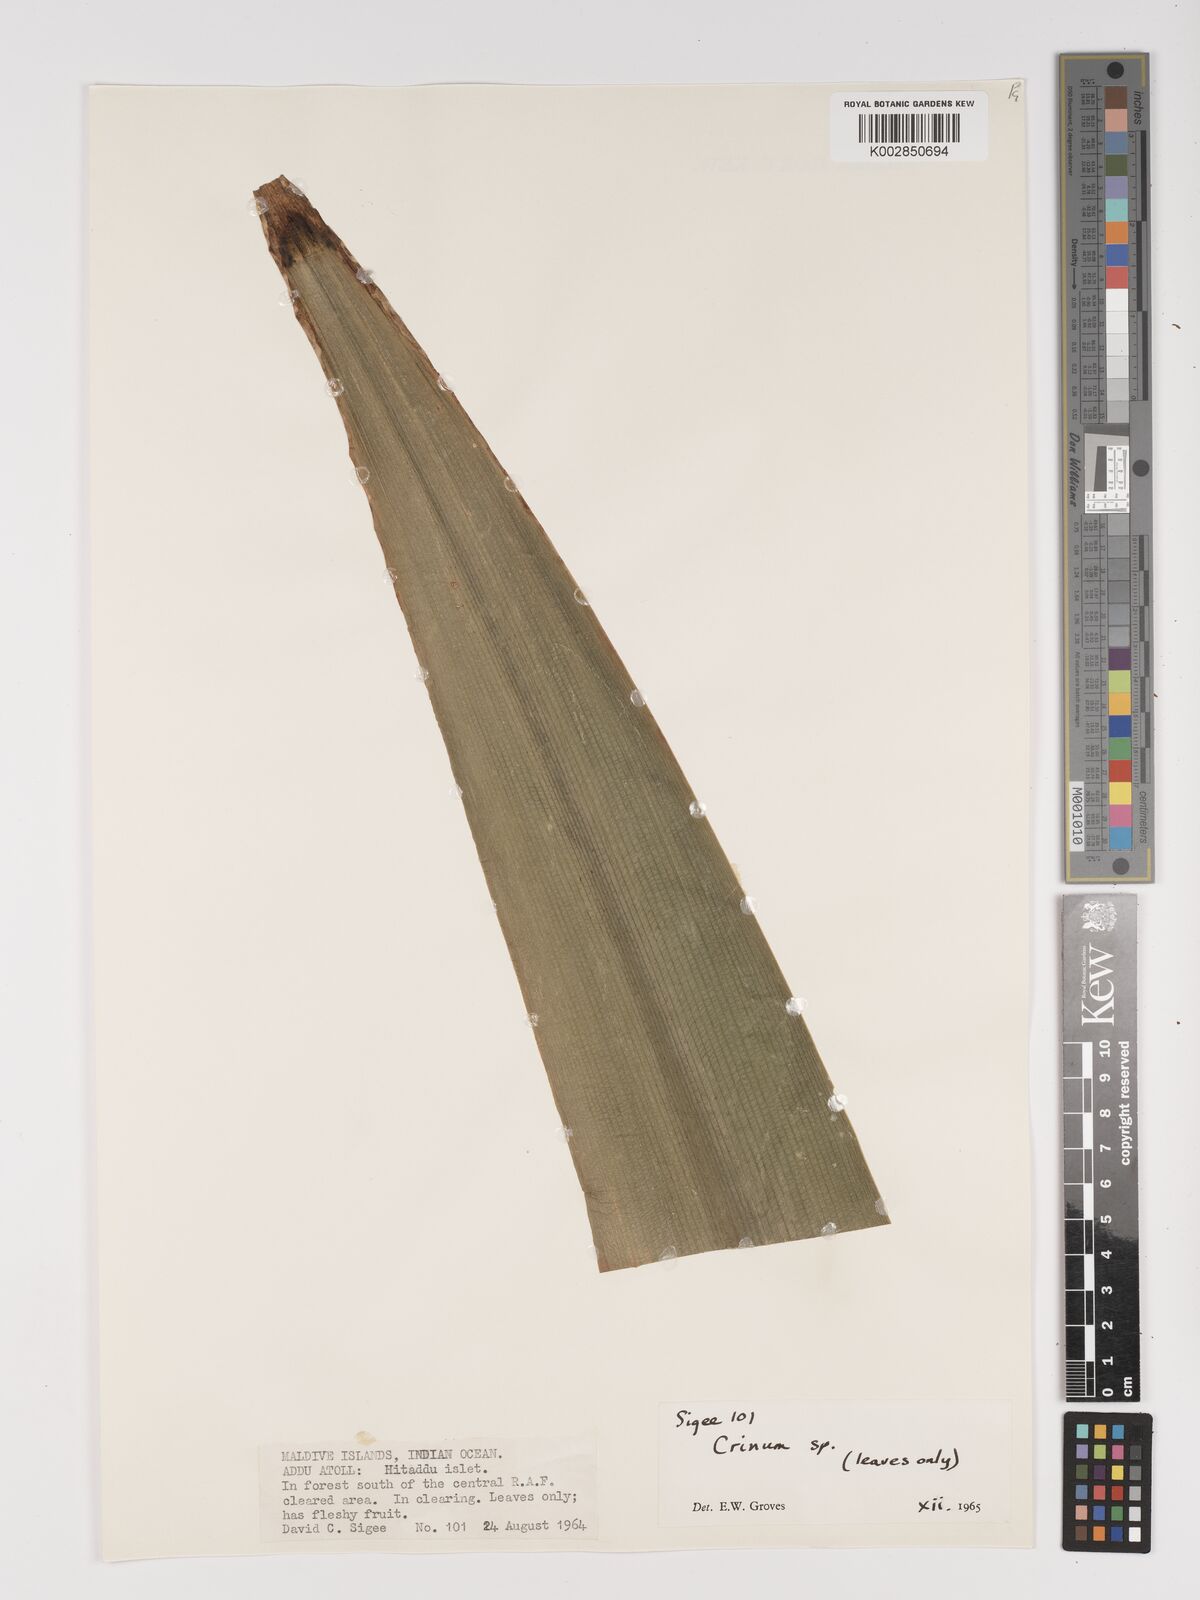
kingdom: Plantae
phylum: Tracheophyta
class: Liliopsida
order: Asparagales
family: Amaryllidaceae
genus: Crinum
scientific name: Crinum
